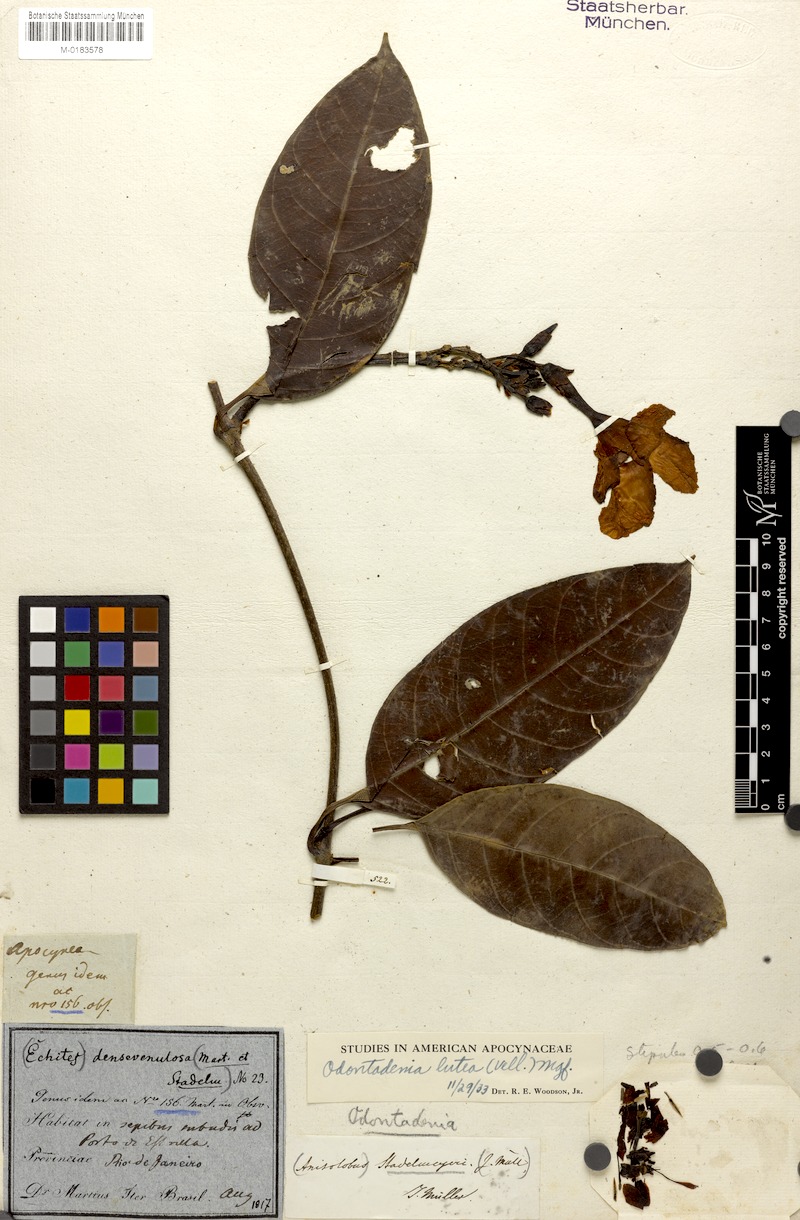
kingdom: Plantae
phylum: Tracheophyta
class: Magnoliopsida
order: Gentianales
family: Apocynaceae
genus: Odontadenia
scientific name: Odontadenia lutea
